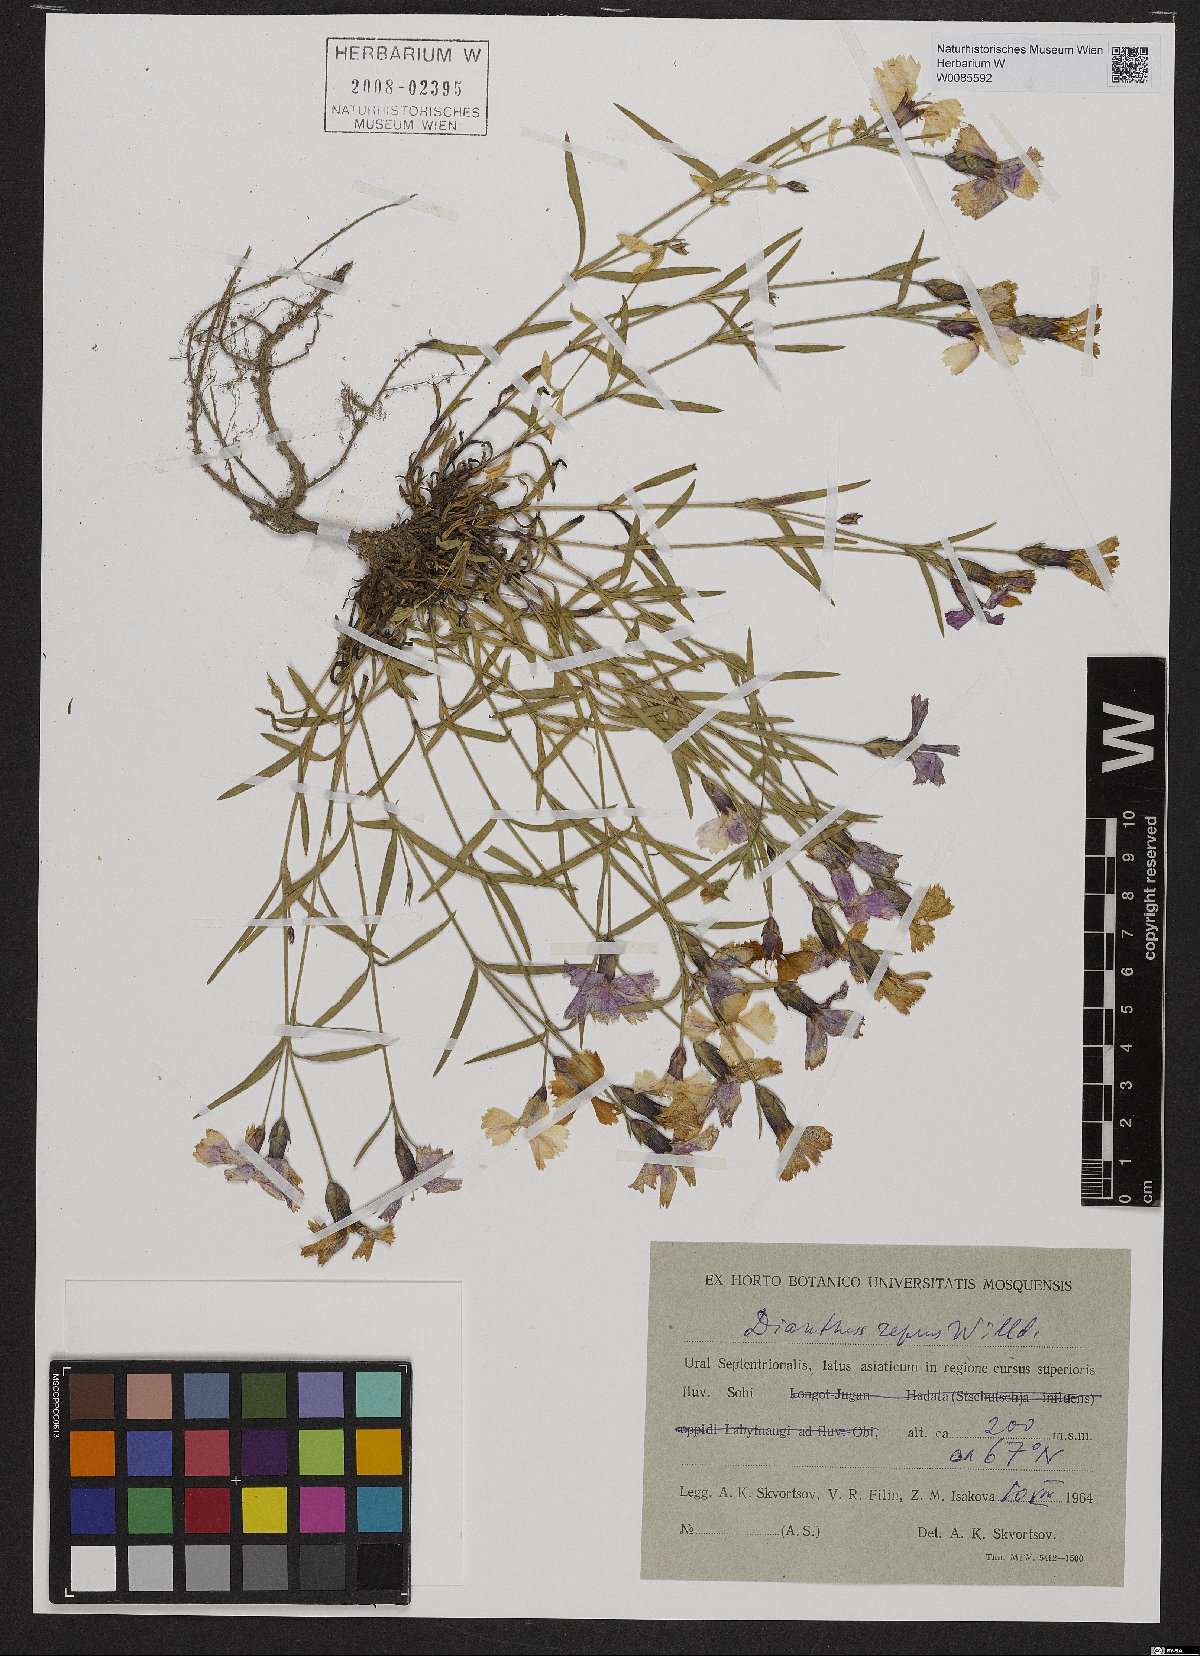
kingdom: Plantae
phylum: Tracheophyta
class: Magnoliopsida
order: Caryophyllales
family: Caryophyllaceae
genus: Dianthus
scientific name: Dianthus repens
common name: Northern pink
